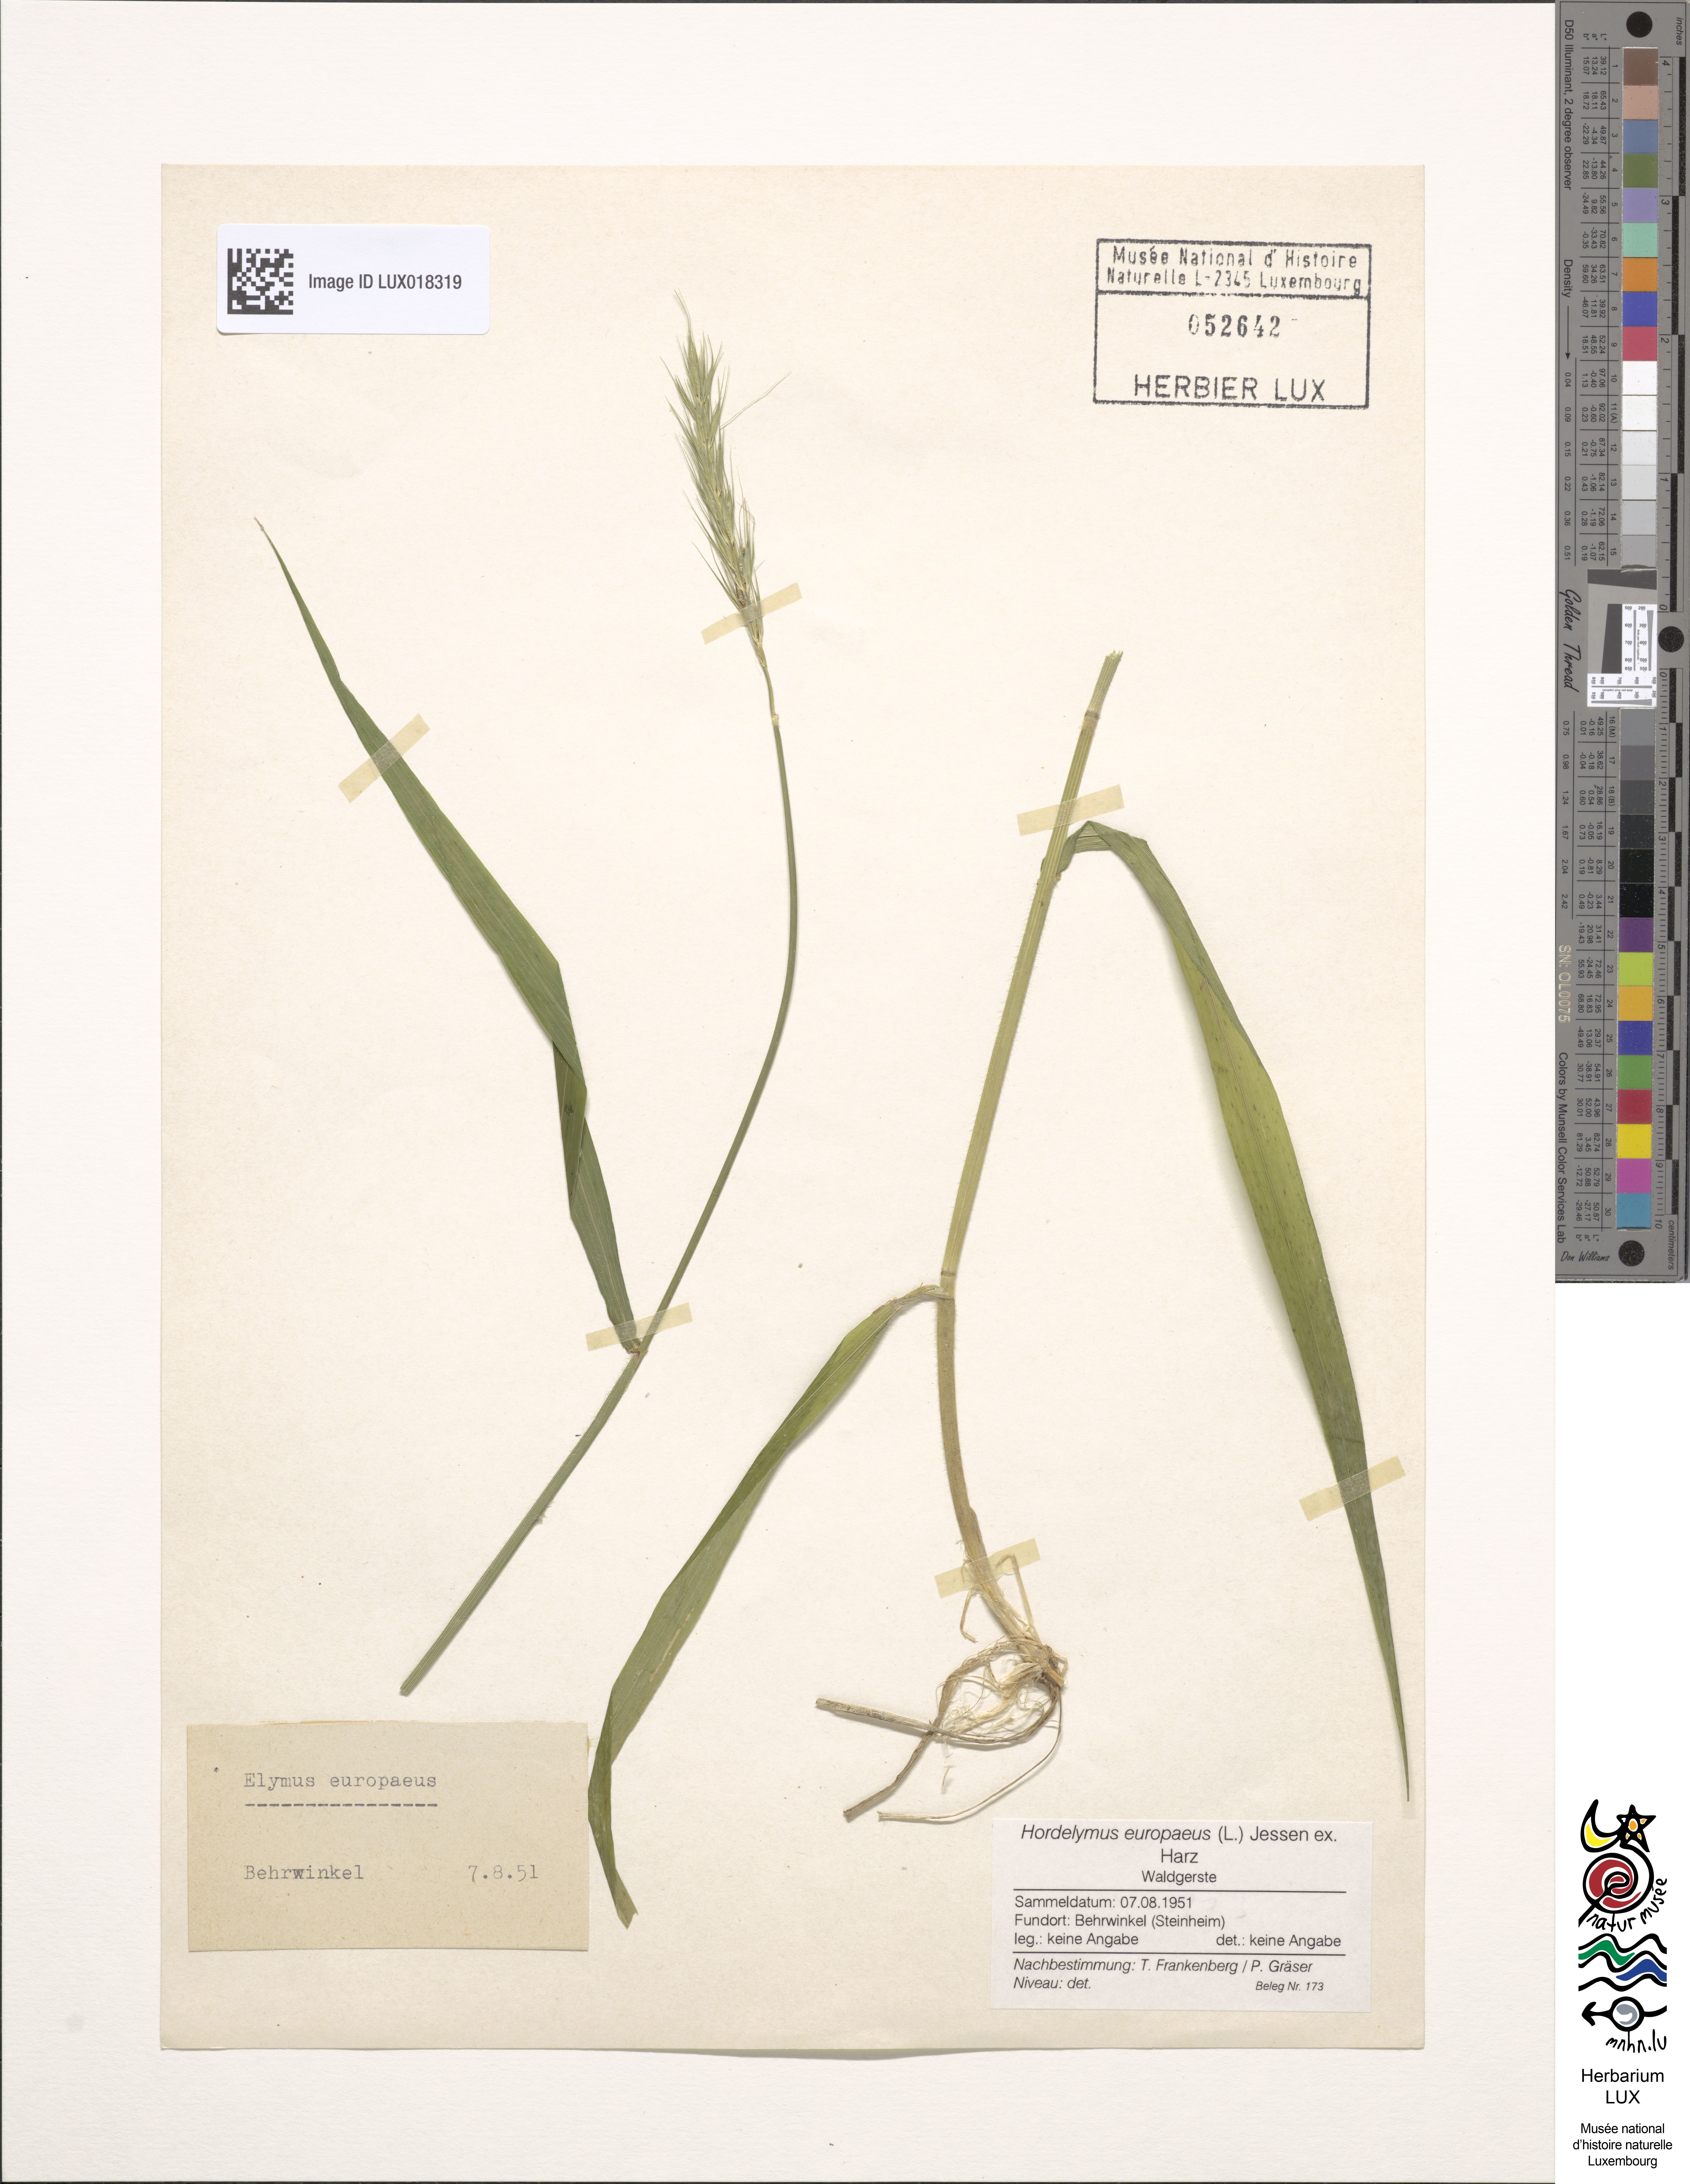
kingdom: Plantae
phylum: Tracheophyta
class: Liliopsida
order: Poales
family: Poaceae
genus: Hordelymus
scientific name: Hordelymus europaeus
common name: Wood-barley
